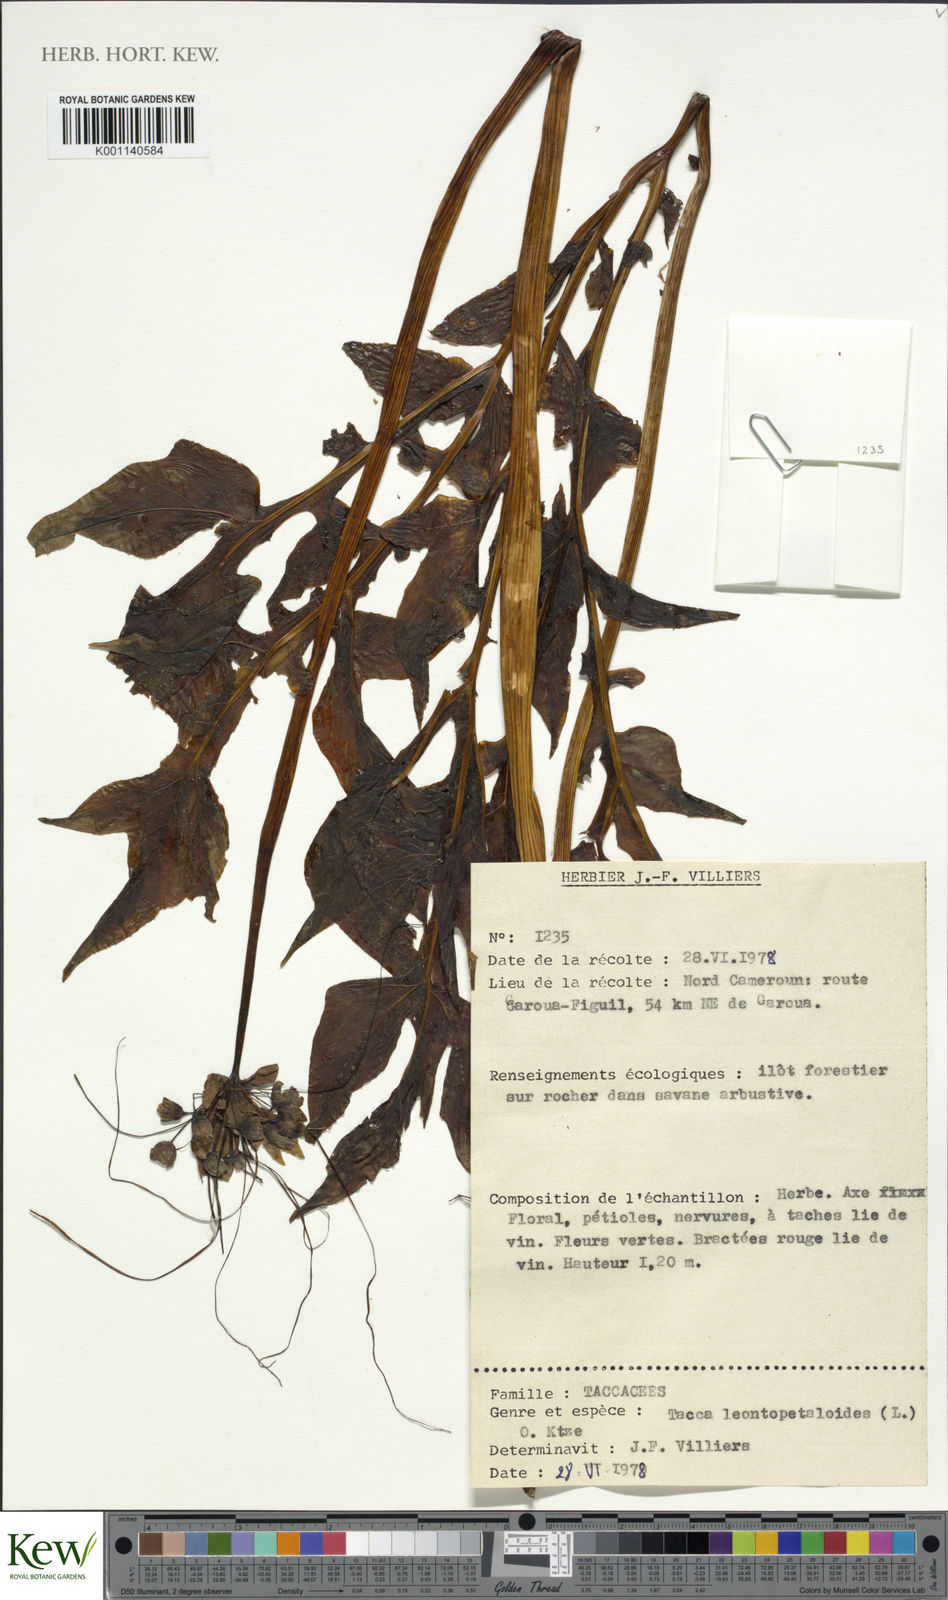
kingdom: Plantae
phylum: Tracheophyta
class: Liliopsida
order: Dioscoreales
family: Dioscoreaceae
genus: Tacca
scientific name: Tacca leontopetaloides
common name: Arrowroot
